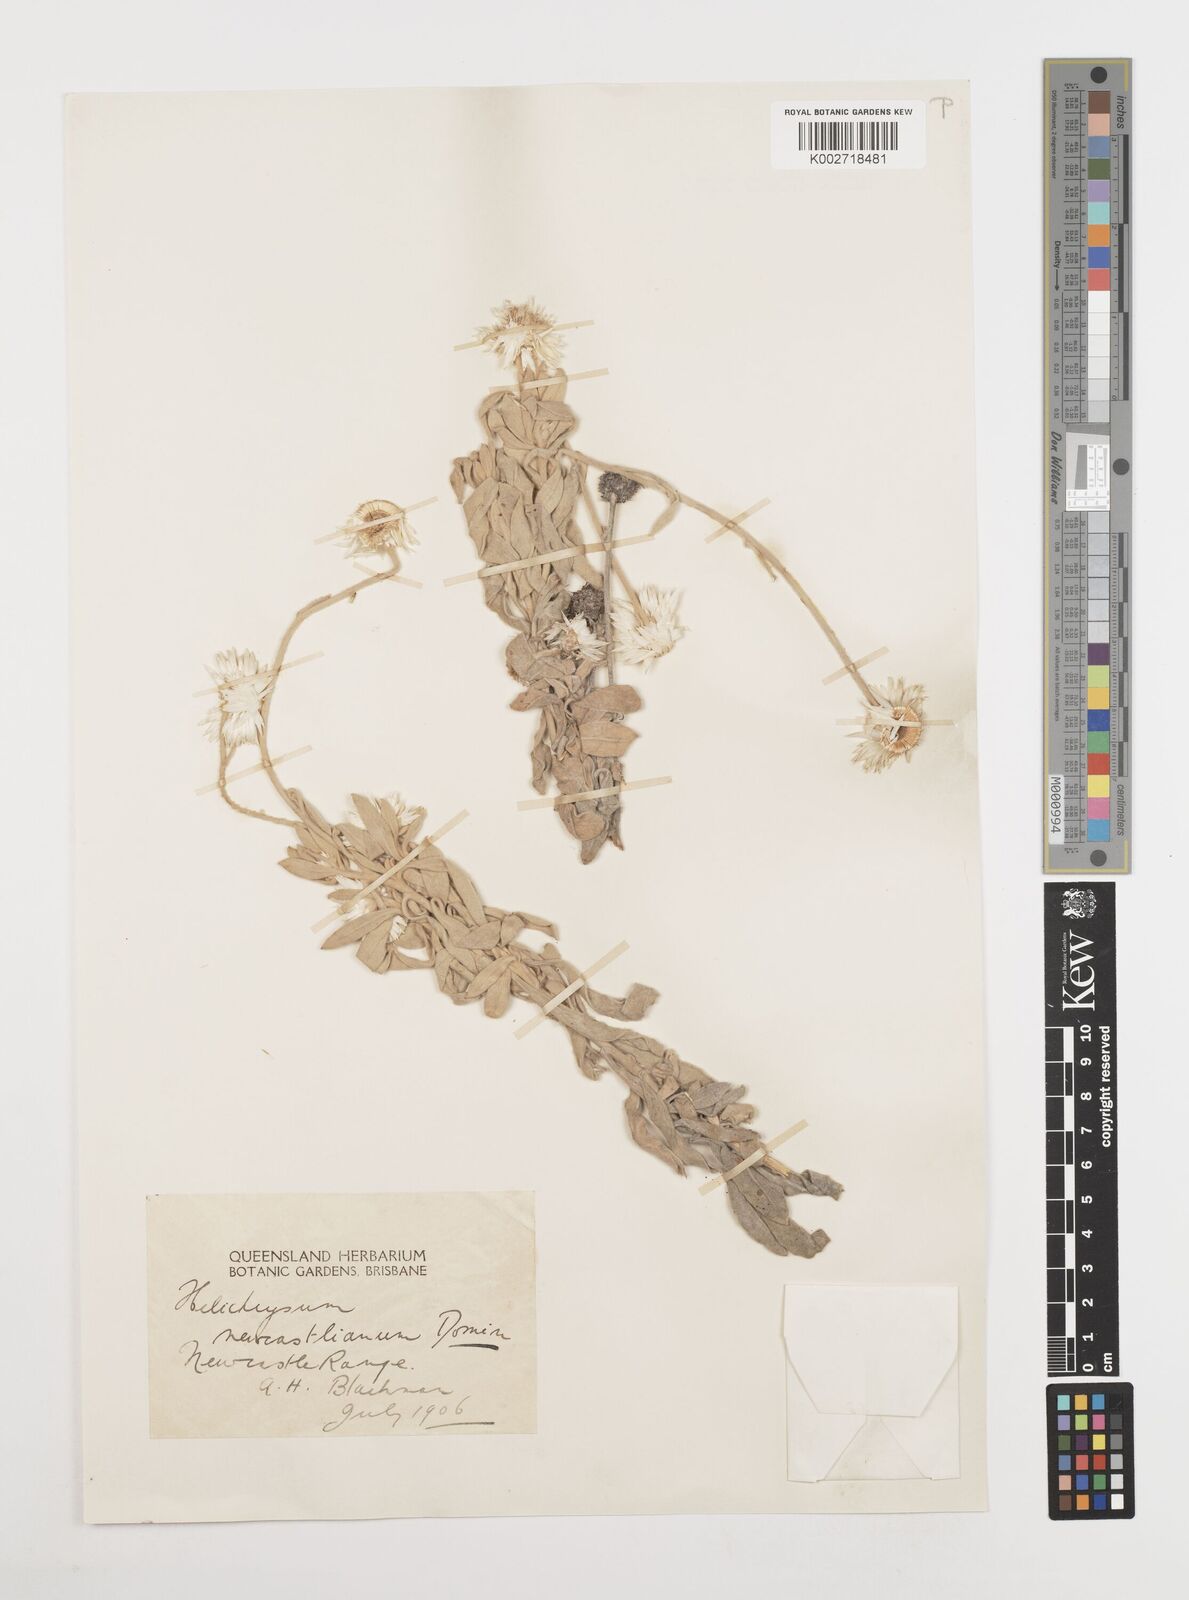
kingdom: Plantae
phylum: Tracheophyta
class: Magnoliopsida
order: Asterales
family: Asteraceae
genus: Coronidium
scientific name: Coronidium newcastlianum
